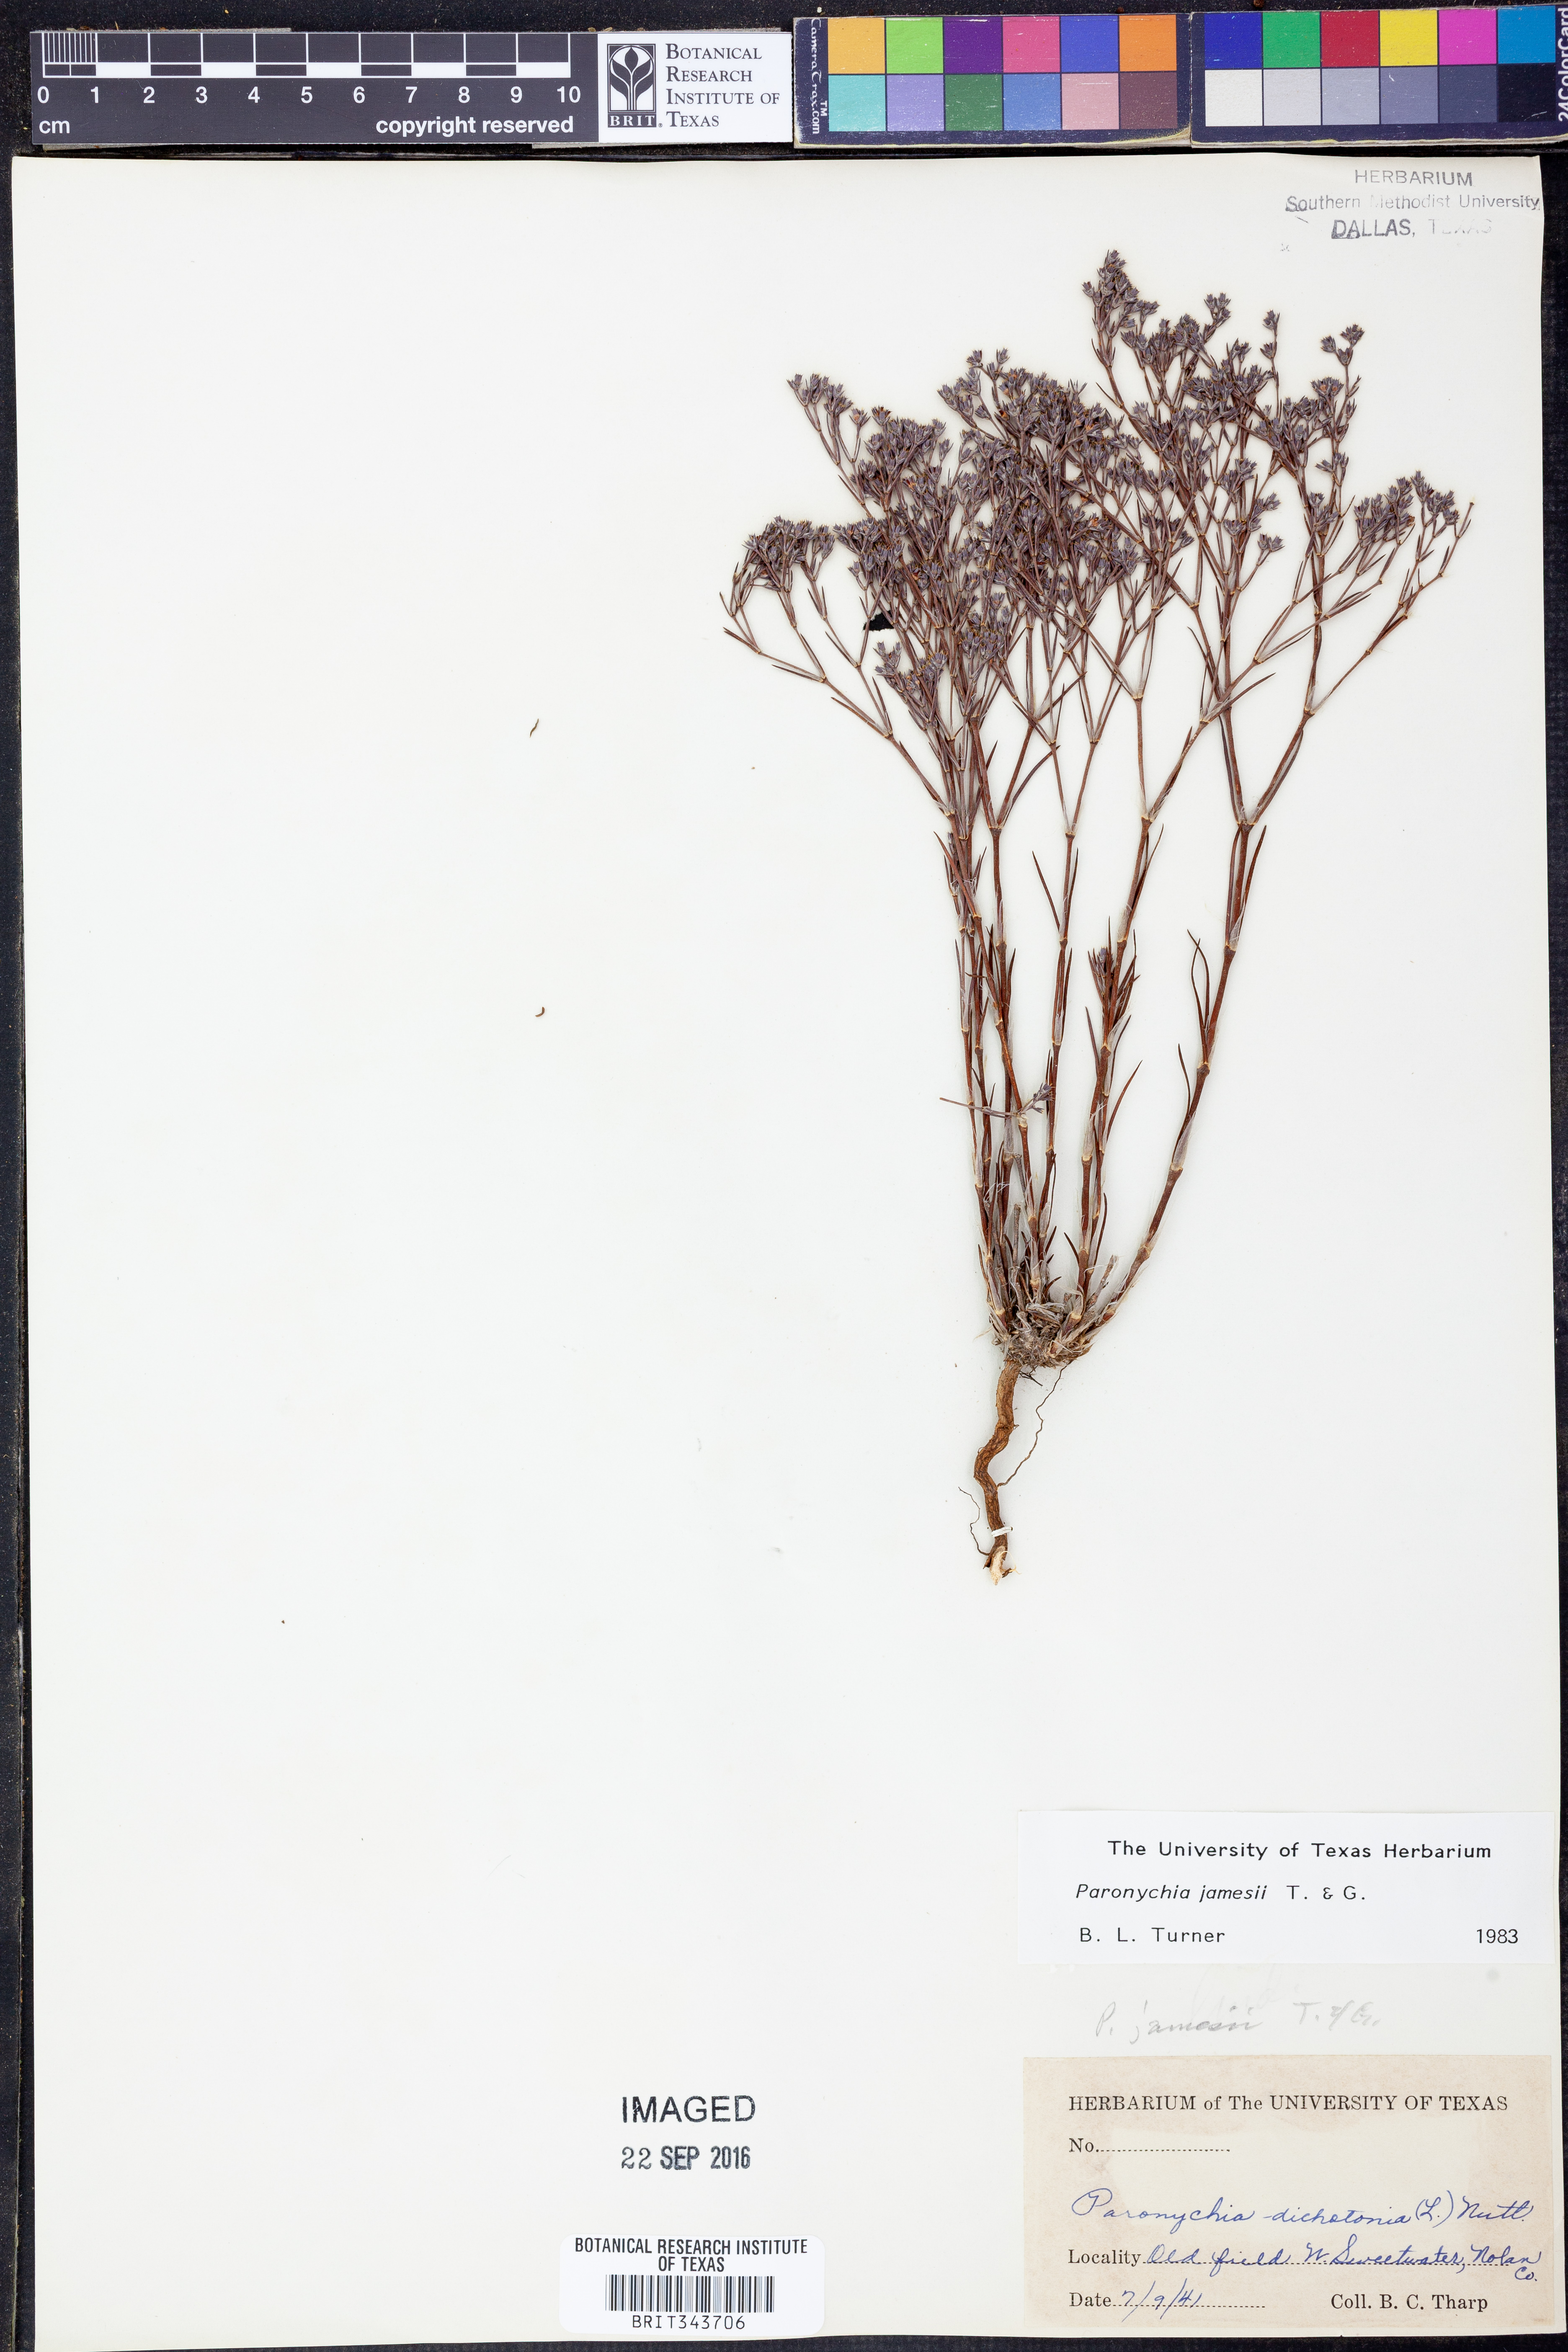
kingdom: Plantae
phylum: Tracheophyta
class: Magnoliopsida
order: Caryophyllales
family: Caryophyllaceae
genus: Paronychia
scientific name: Paronychia jamesii
